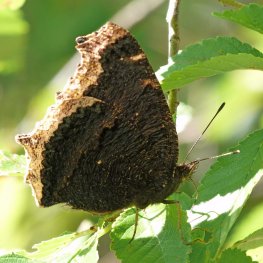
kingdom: Animalia
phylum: Arthropoda
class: Insecta
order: Lepidoptera
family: Nymphalidae
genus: Nymphalis
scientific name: Nymphalis antiopa
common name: Mourning Cloak
